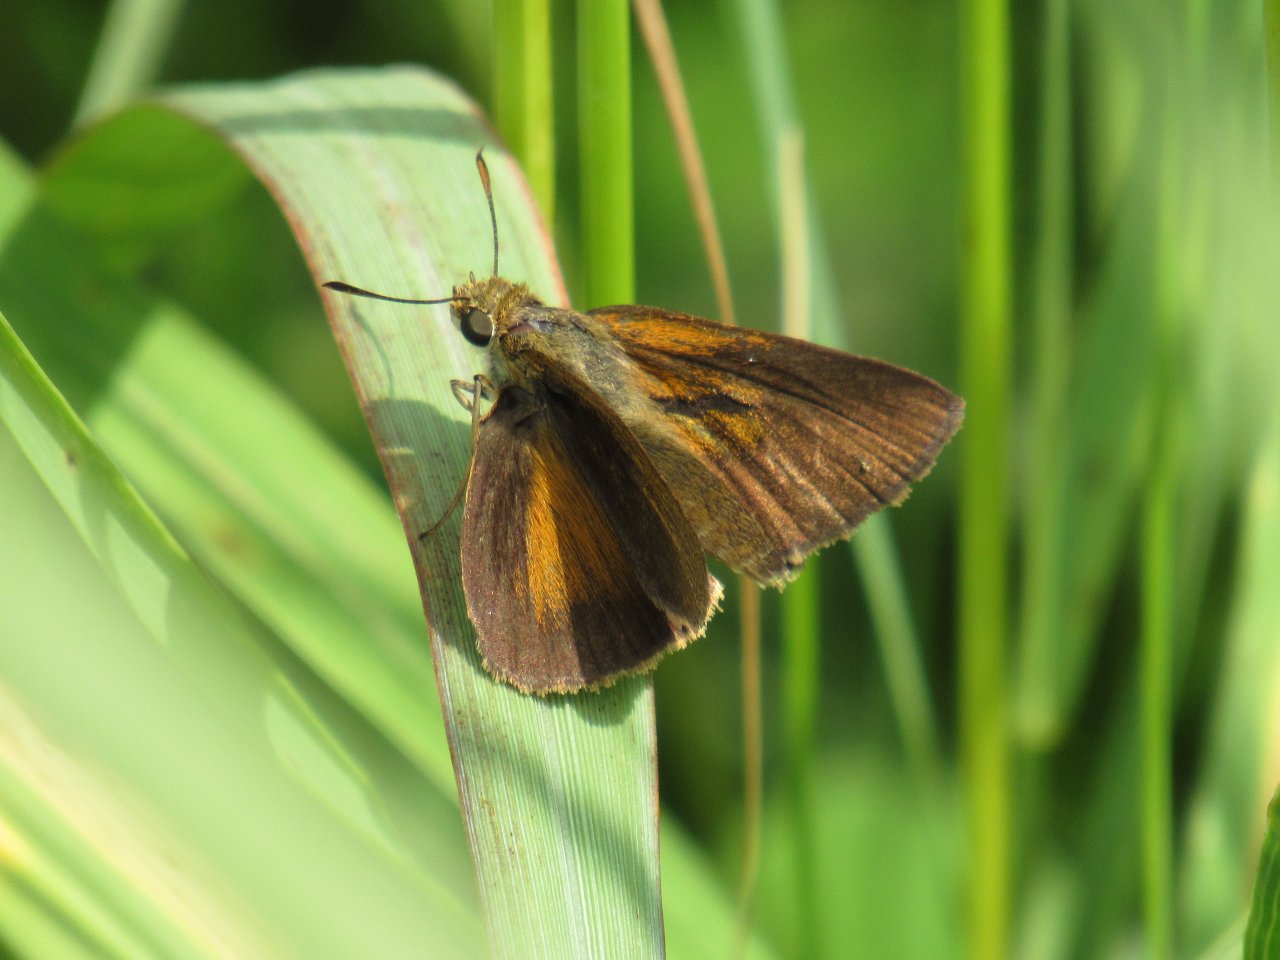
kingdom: Animalia
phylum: Arthropoda
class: Insecta
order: Lepidoptera
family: Hesperiidae
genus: Euphyes
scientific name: Euphyes dukesi
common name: Dukes' Skipper
